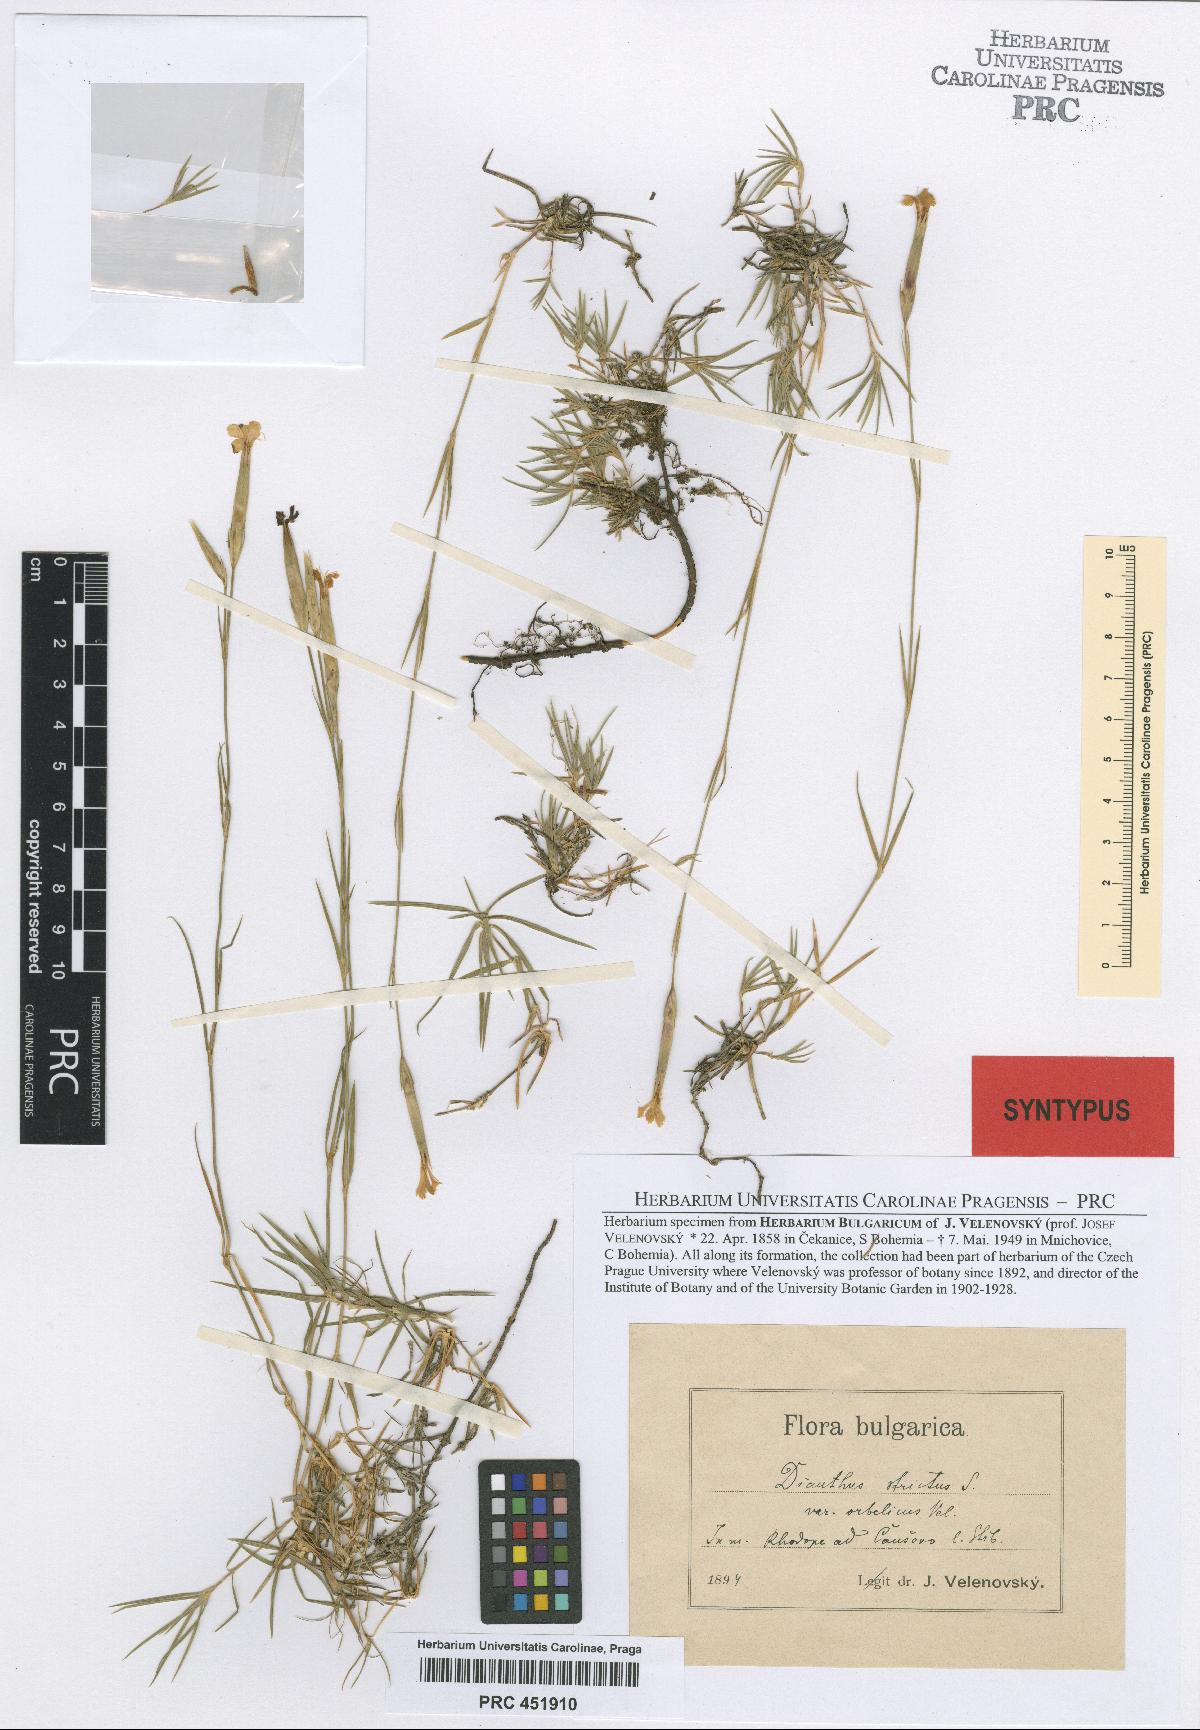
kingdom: Plantae
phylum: Tracheophyta
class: Magnoliopsida
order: Caryophyllales
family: Caryophyllaceae
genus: Dianthus
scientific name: Dianthus petraeus
